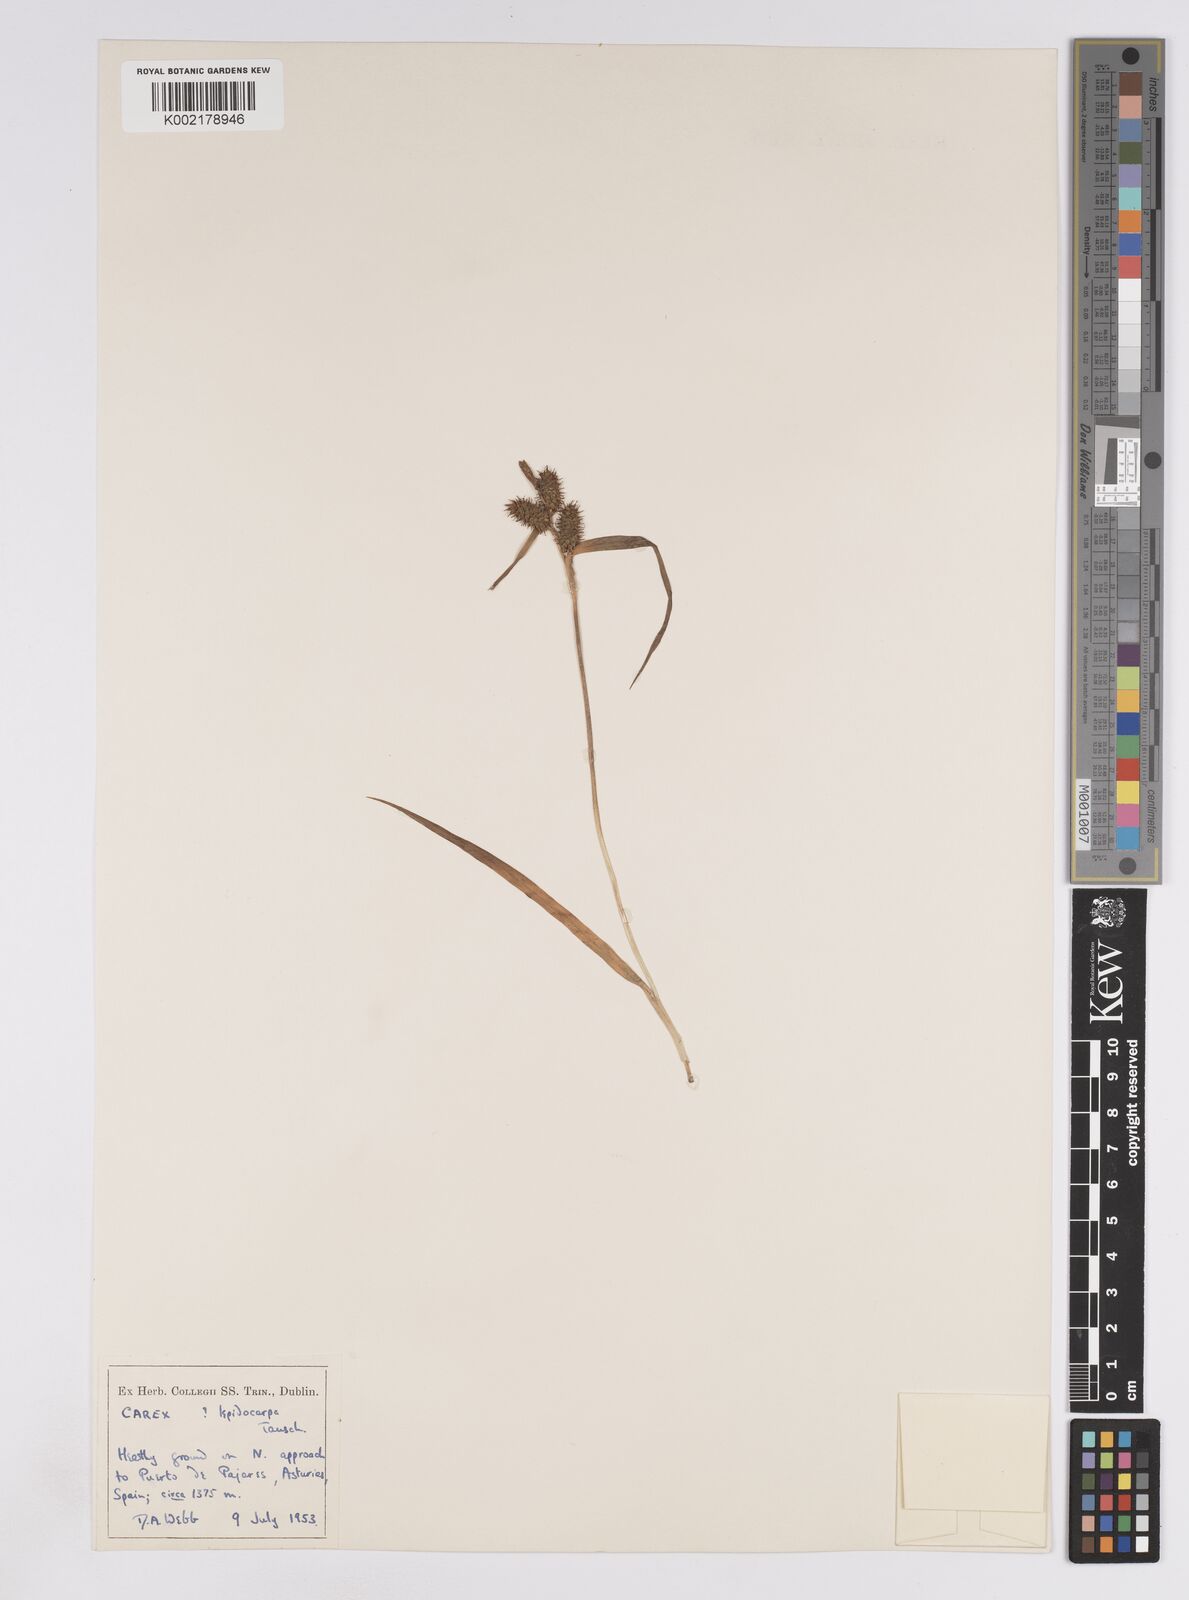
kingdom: Plantae
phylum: Tracheophyta
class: Liliopsida
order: Poales
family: Cyperaceae
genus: Carex
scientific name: Carex lepidocarpa
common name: Long-stalked yellow-sedge
